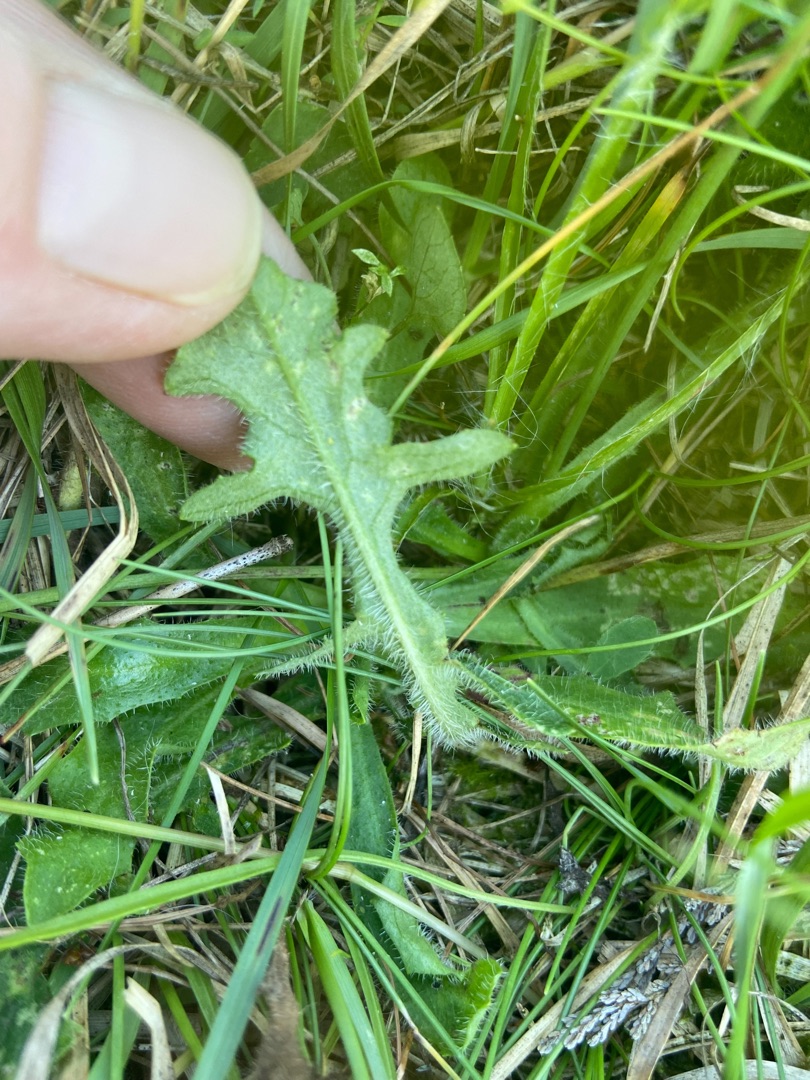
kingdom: Plantae
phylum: Tracheophyta
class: Magnoliopsida
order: Asterales
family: Asteraceae
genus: Hypochaeris
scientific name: Hypochaeris radicata
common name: Almindelig kongepen
